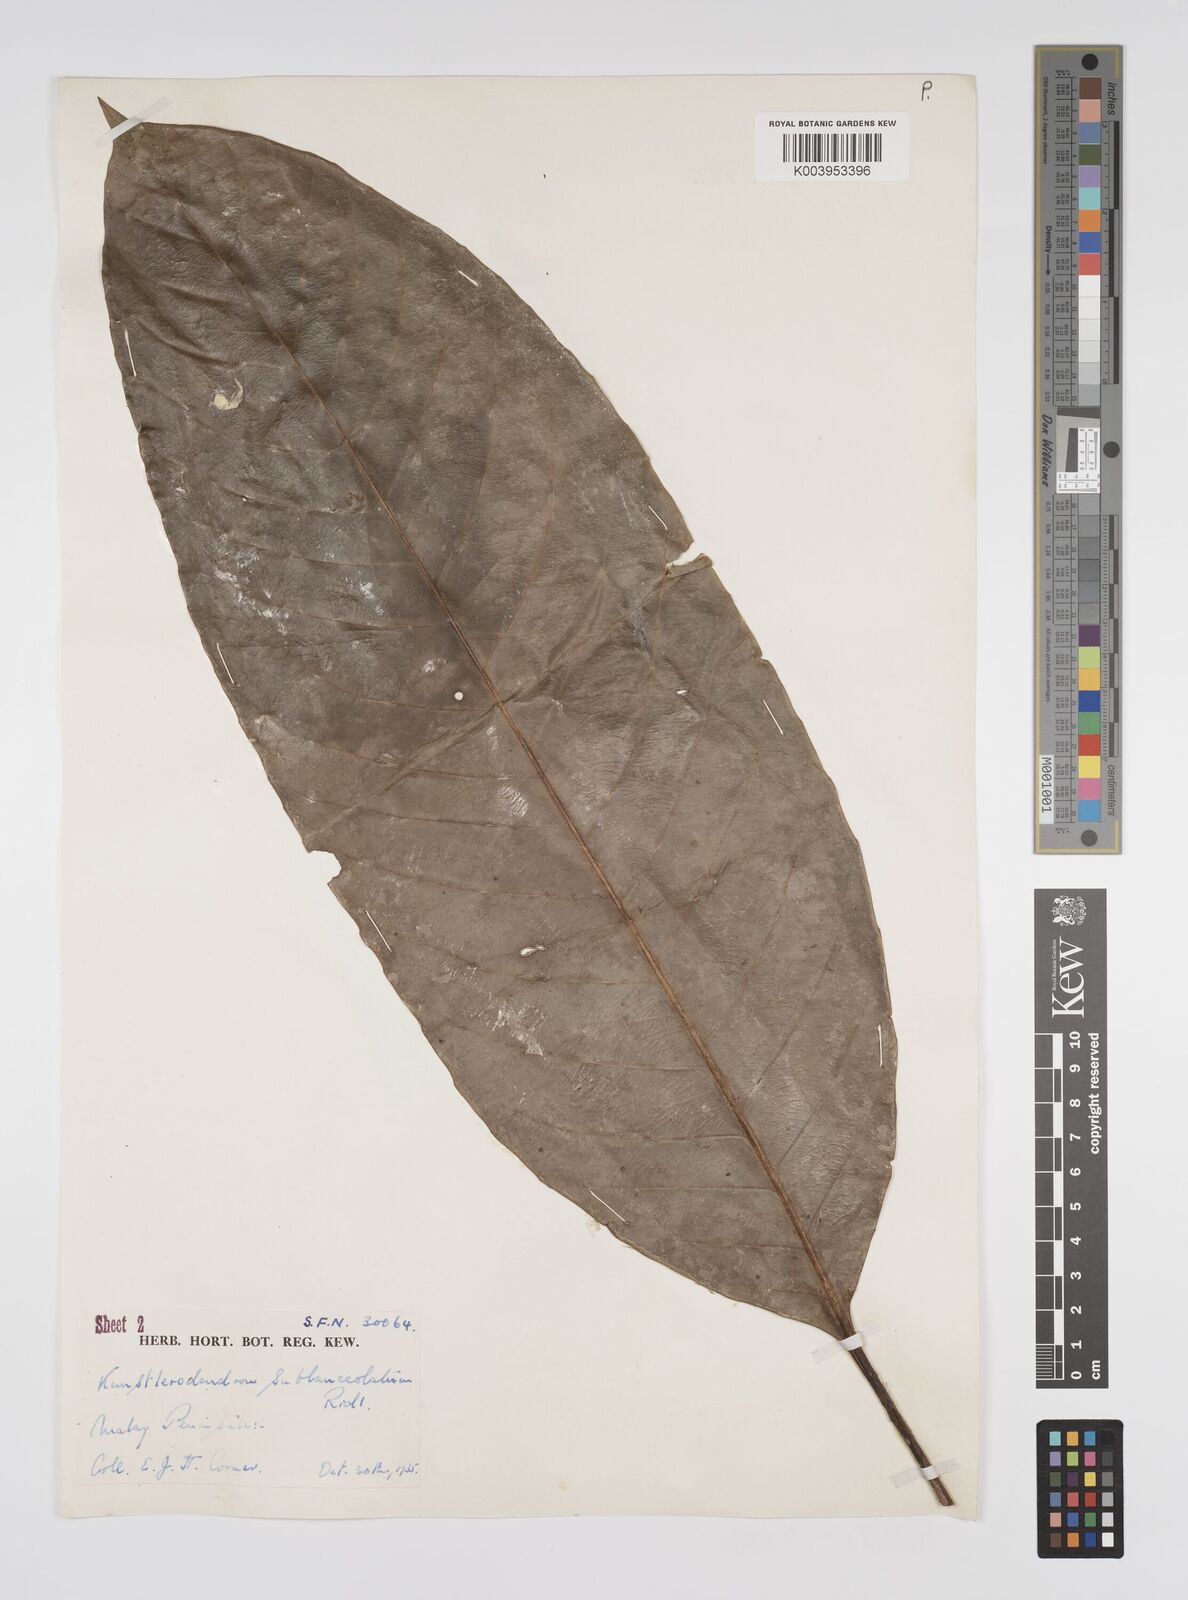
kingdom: Plantae
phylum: Tracheophyta
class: Magnoliopsida
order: Malpighiales
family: Euphorbiaceae
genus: Chondrostylis
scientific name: Chondrostylis kunstleri
